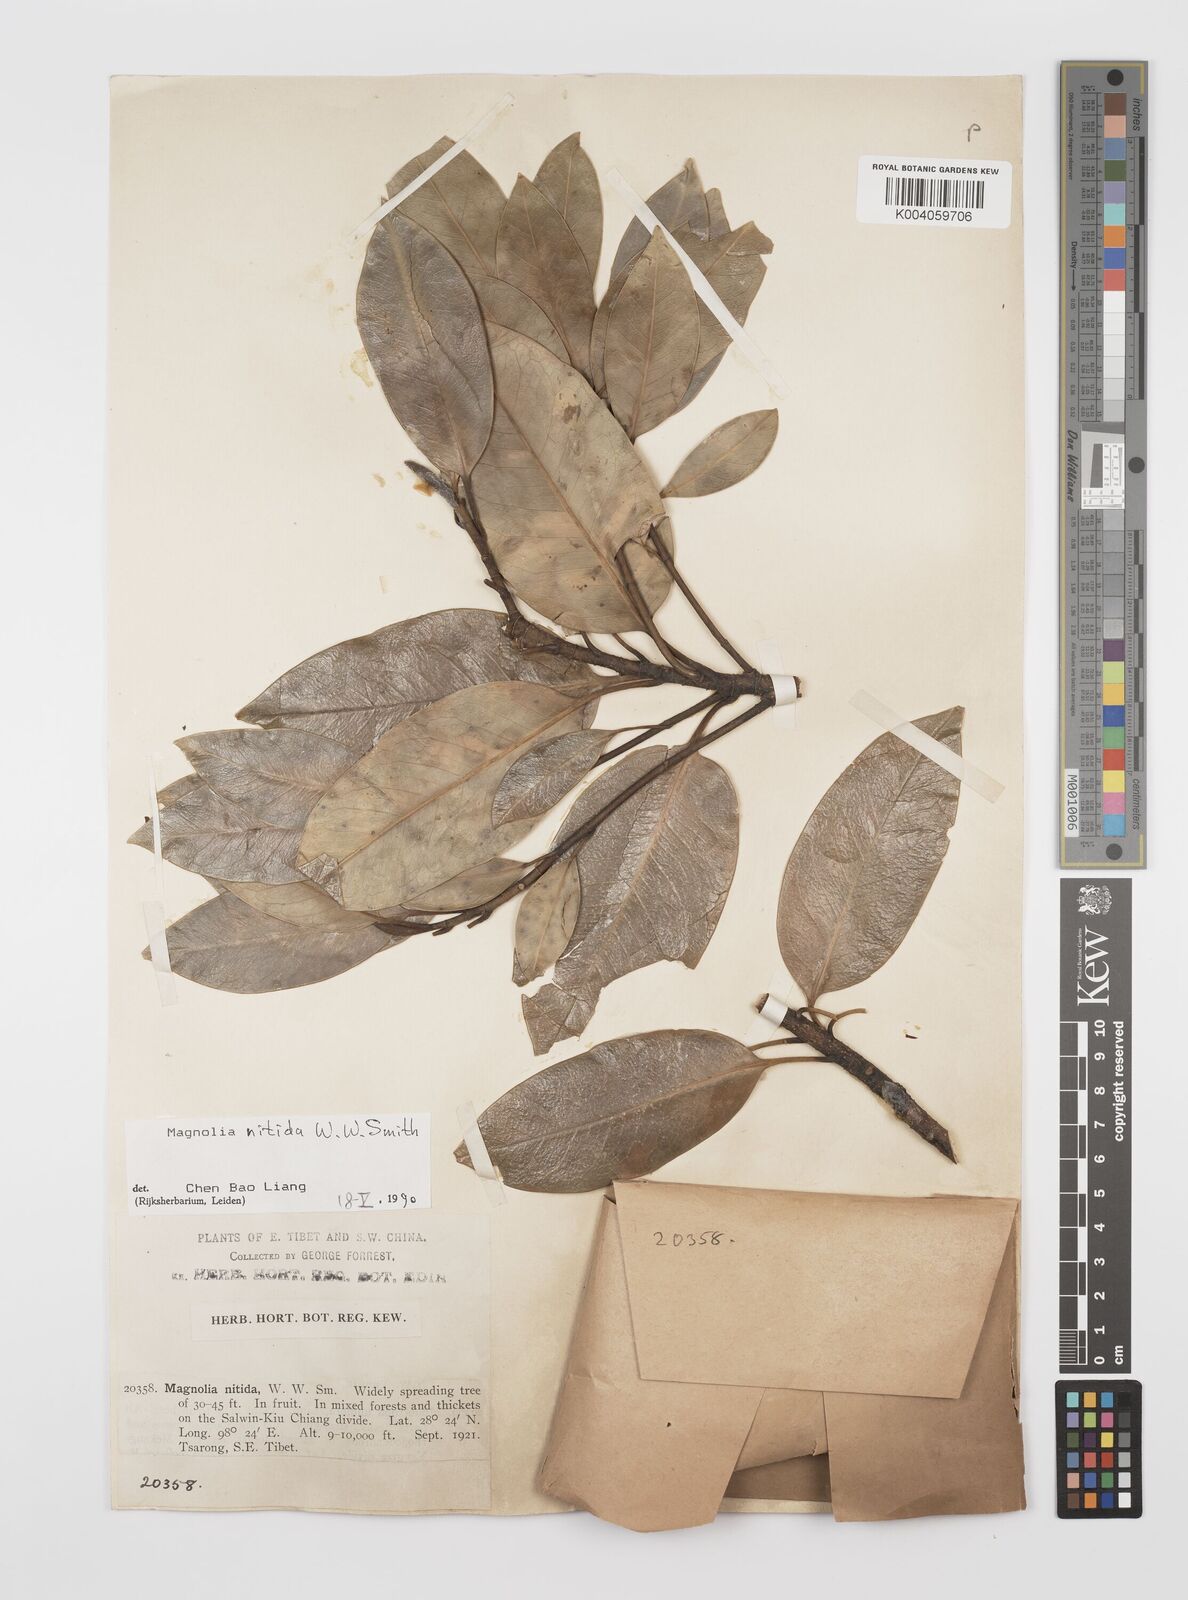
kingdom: Plantae
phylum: Tracheophyta
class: Magnoliopsida
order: Magnoliales
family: Magnoliaceae
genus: Magnolia
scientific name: Magnolia nitida
